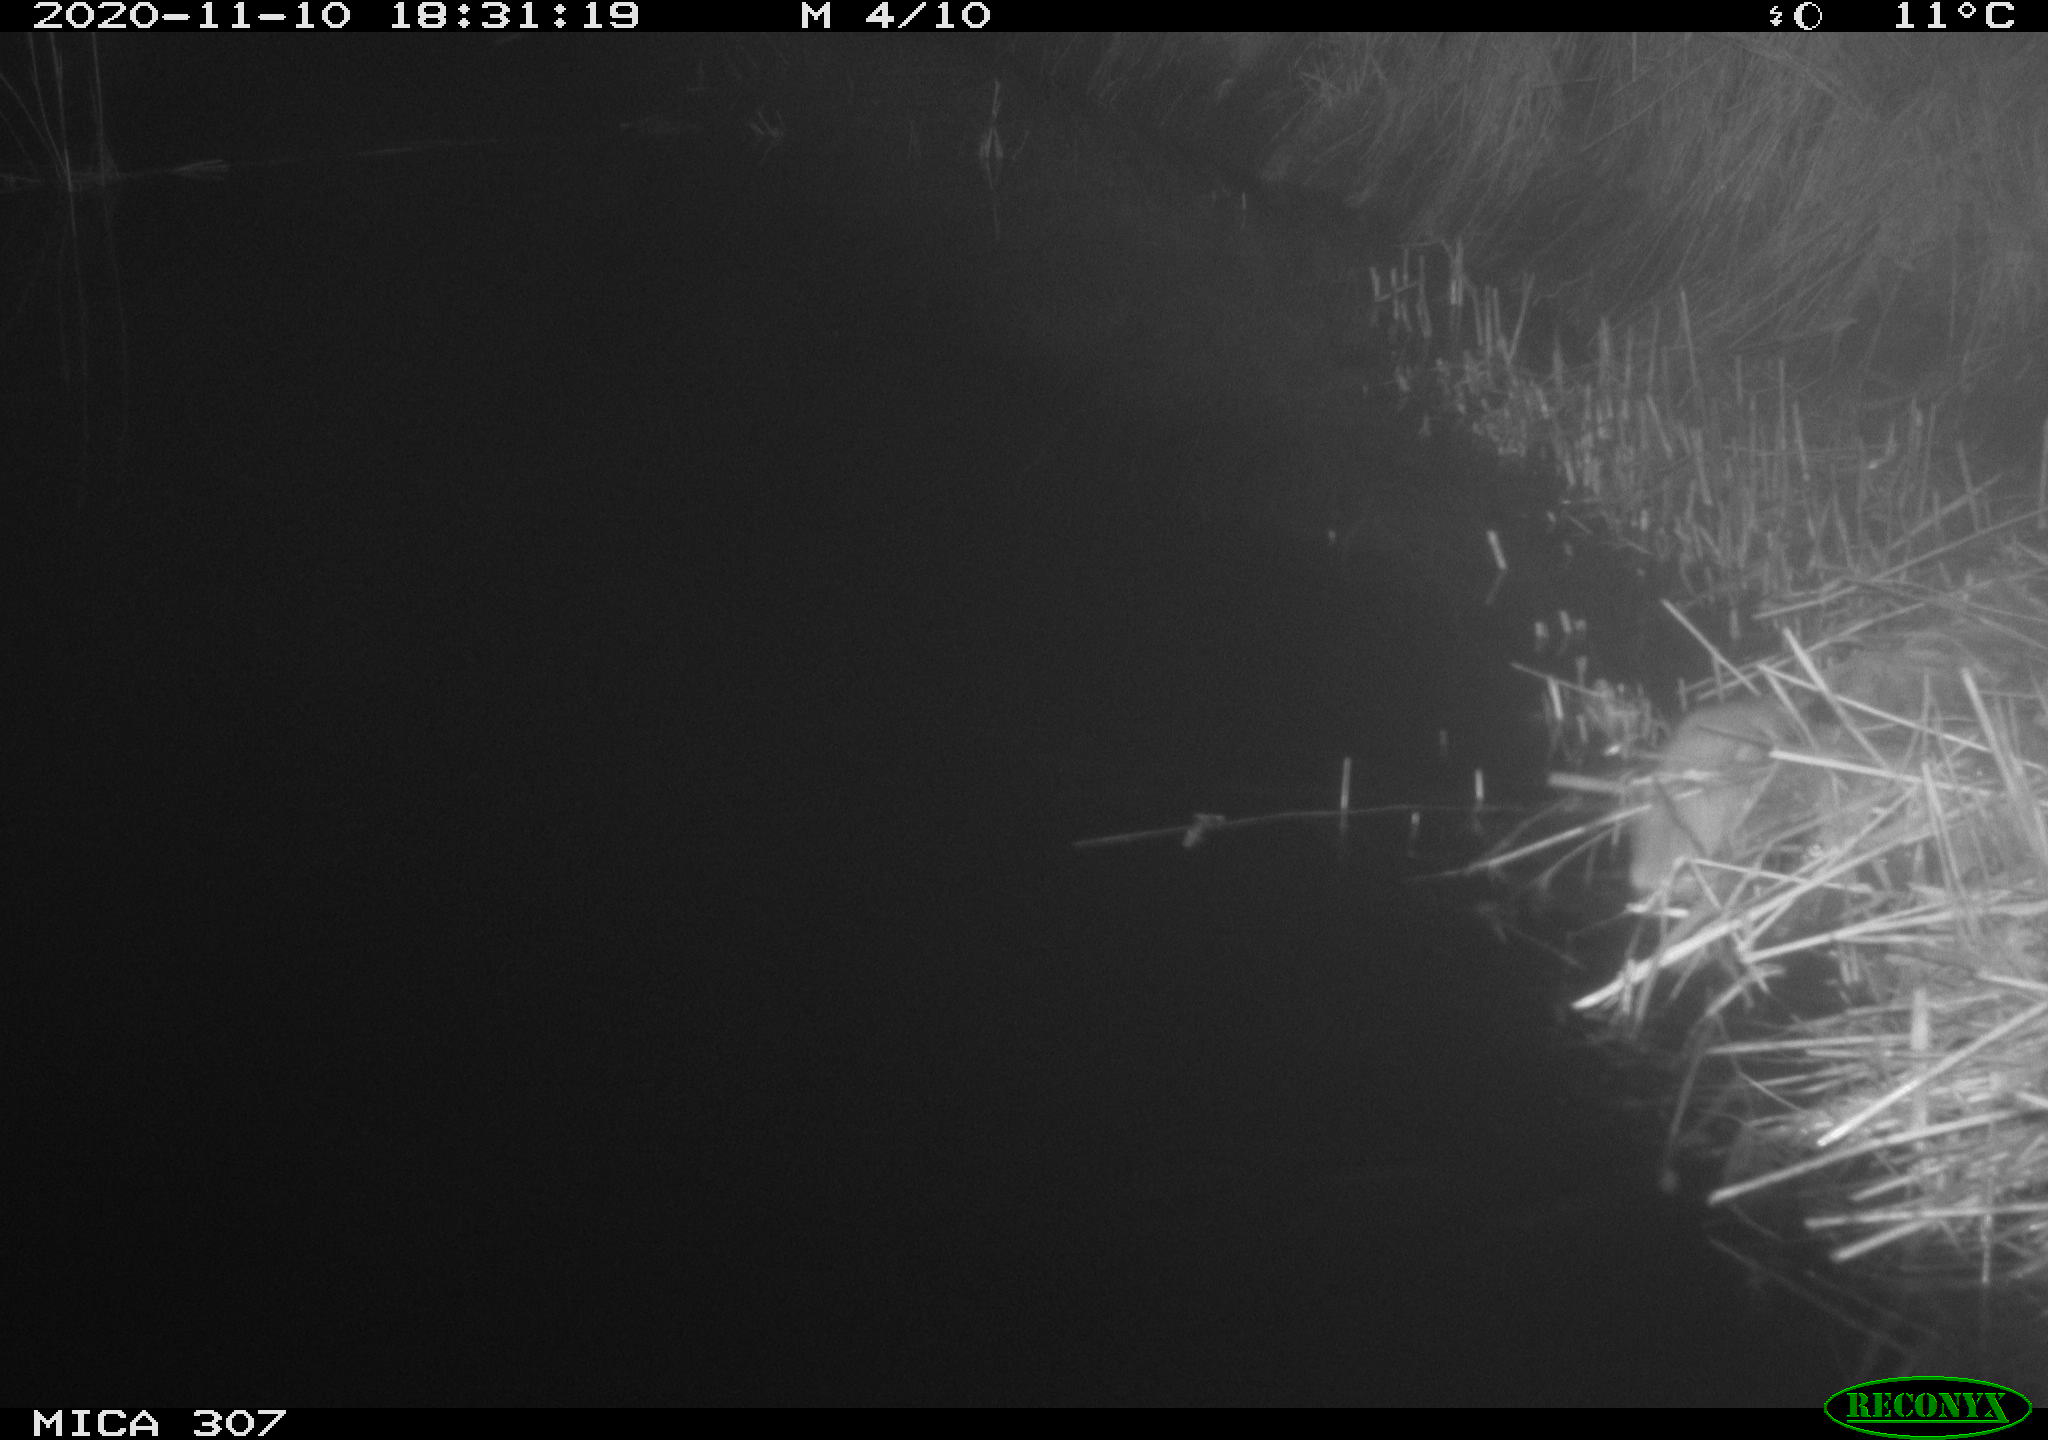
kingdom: Animalia
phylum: Chordata
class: Mammalia
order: Rodentia
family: Muridae
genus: Rattus
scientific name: Rattus norvegicus
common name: Brown rat
